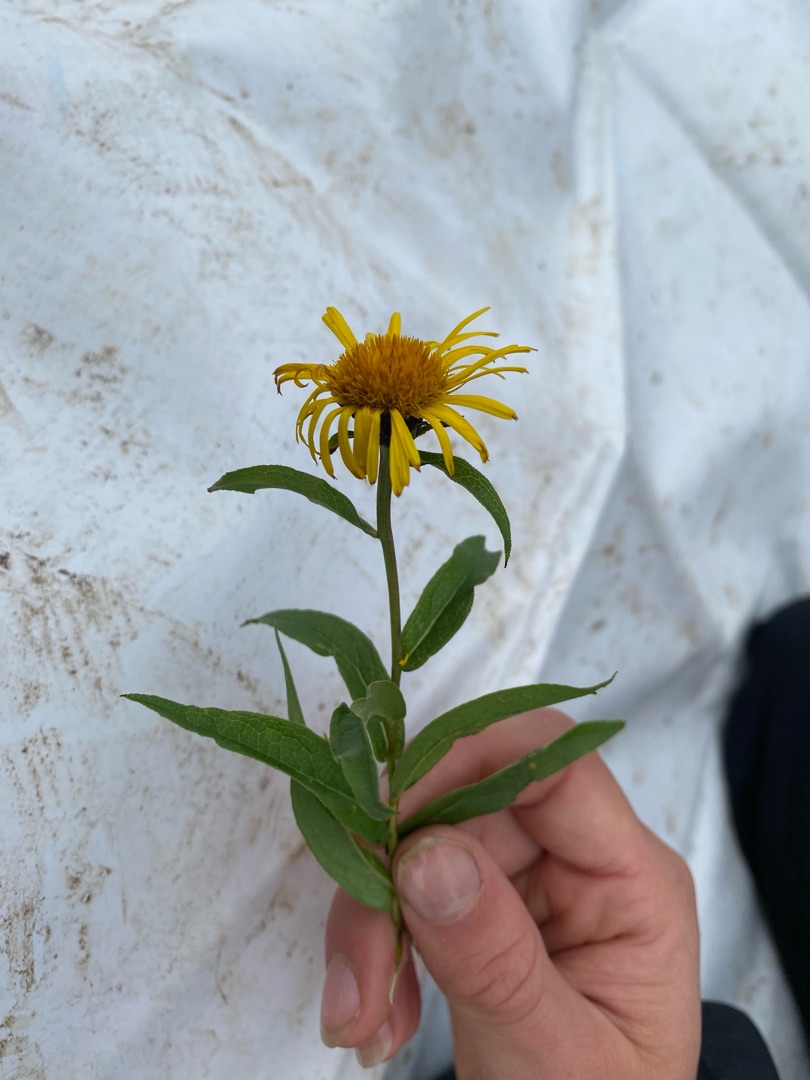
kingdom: Plantae
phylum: Tracheophyta
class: Magnoliopsida
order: Asterales
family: Asteraceae
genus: Pentanema
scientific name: Pentanema salicinum
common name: Pile-alant
